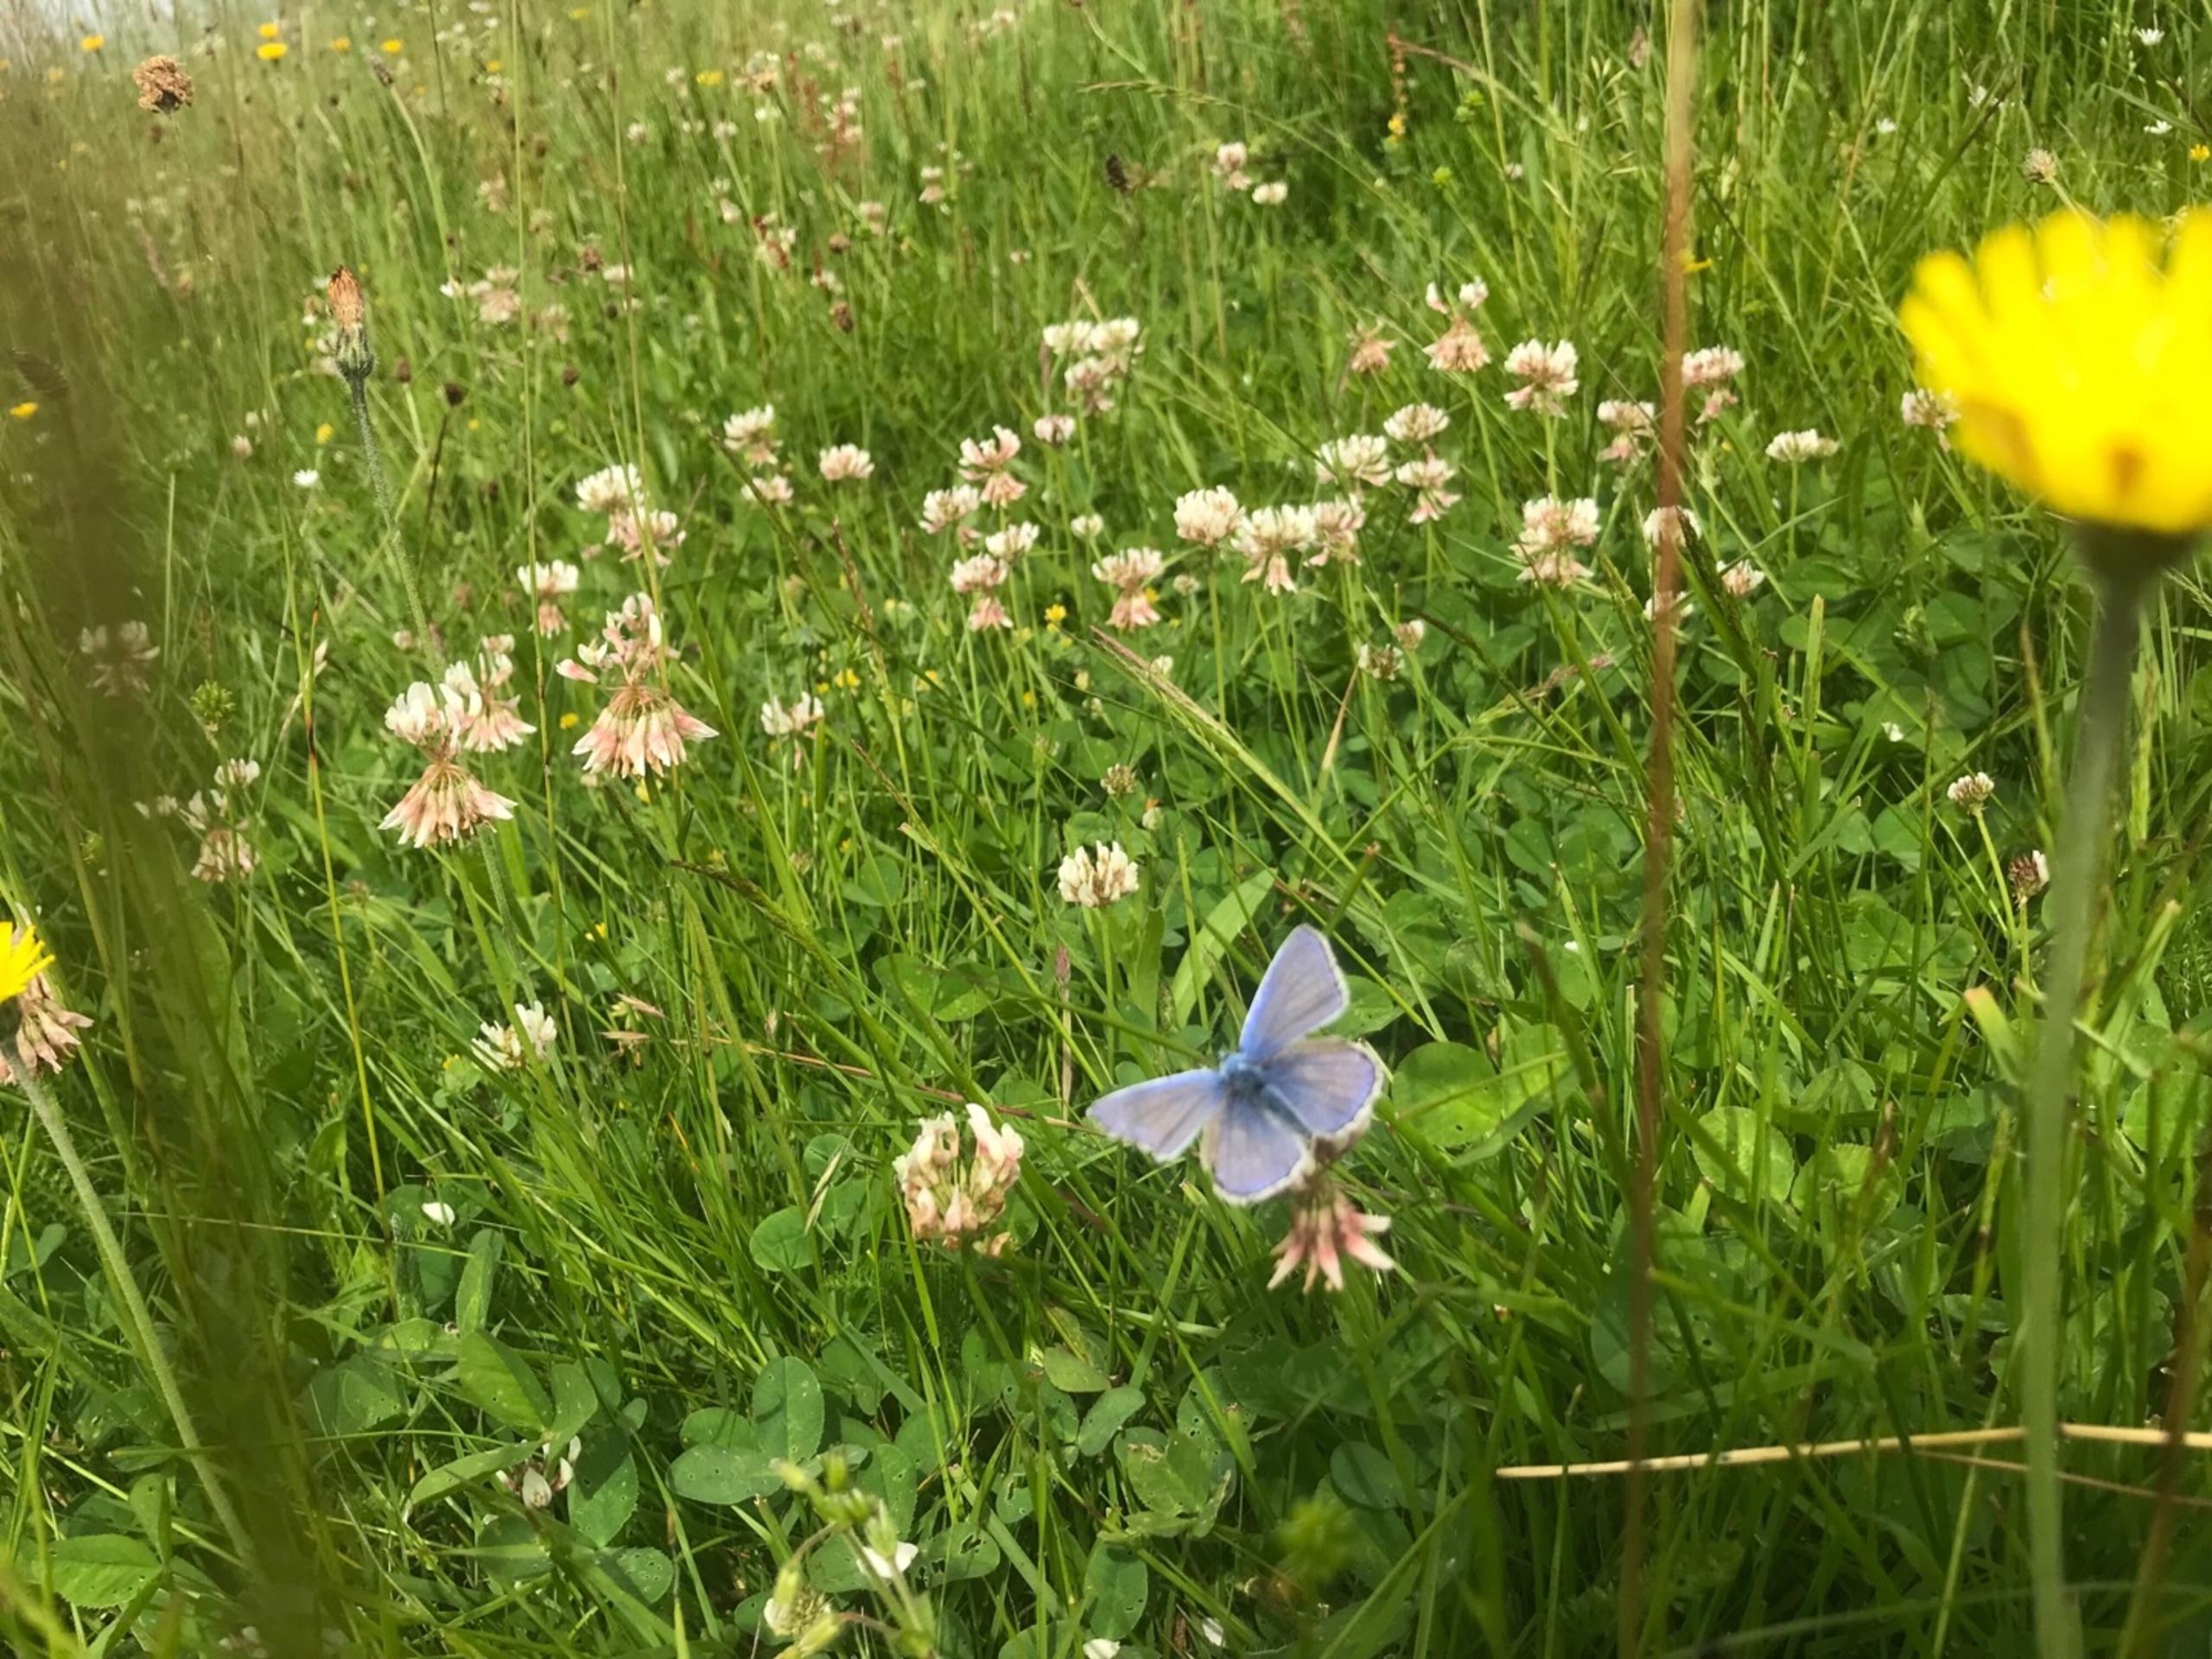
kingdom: Animalia
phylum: Arthropoda
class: Insecta
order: Lepidoptera
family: Lycaenidae
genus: Polyommatus
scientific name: Polyommatus icarus
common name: Almindelig blåfugl
